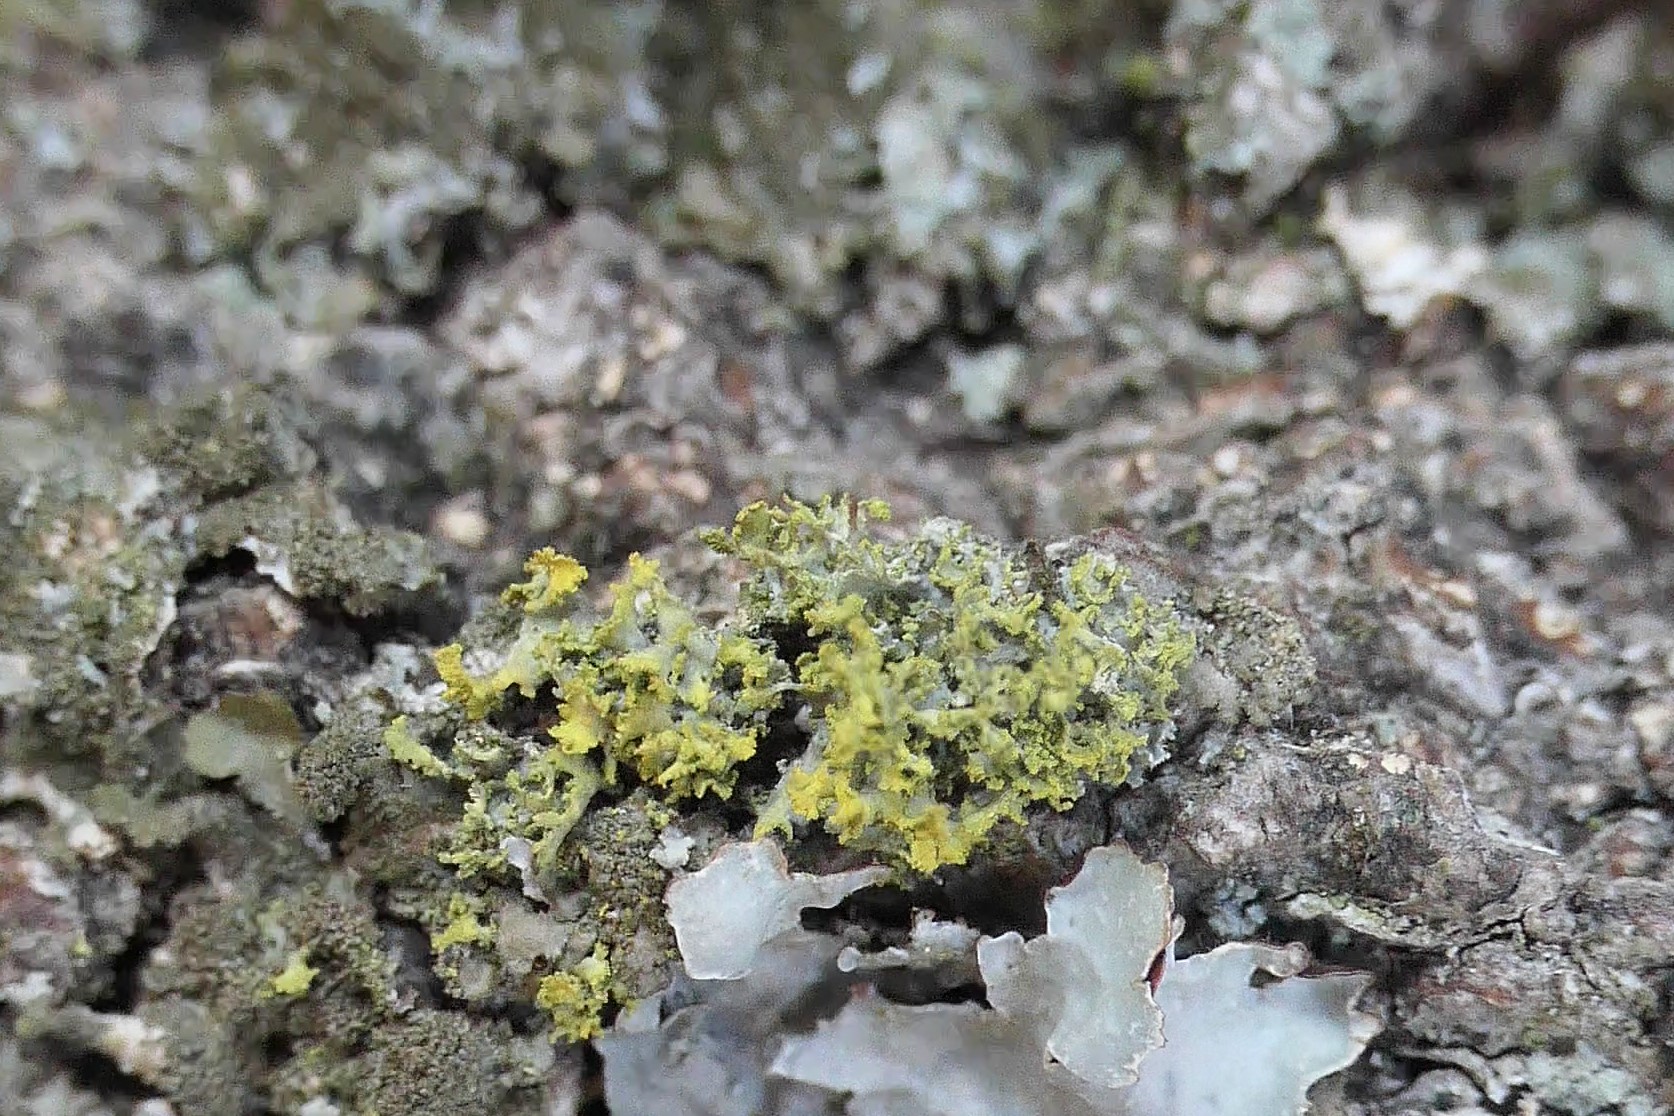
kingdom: Fungi
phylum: Ascomycota
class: Lecanoromycetes
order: Teloschistales
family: Teloschistaceae
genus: Polycauliona
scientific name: Polycauliona candelaria
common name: tue-orangelav
